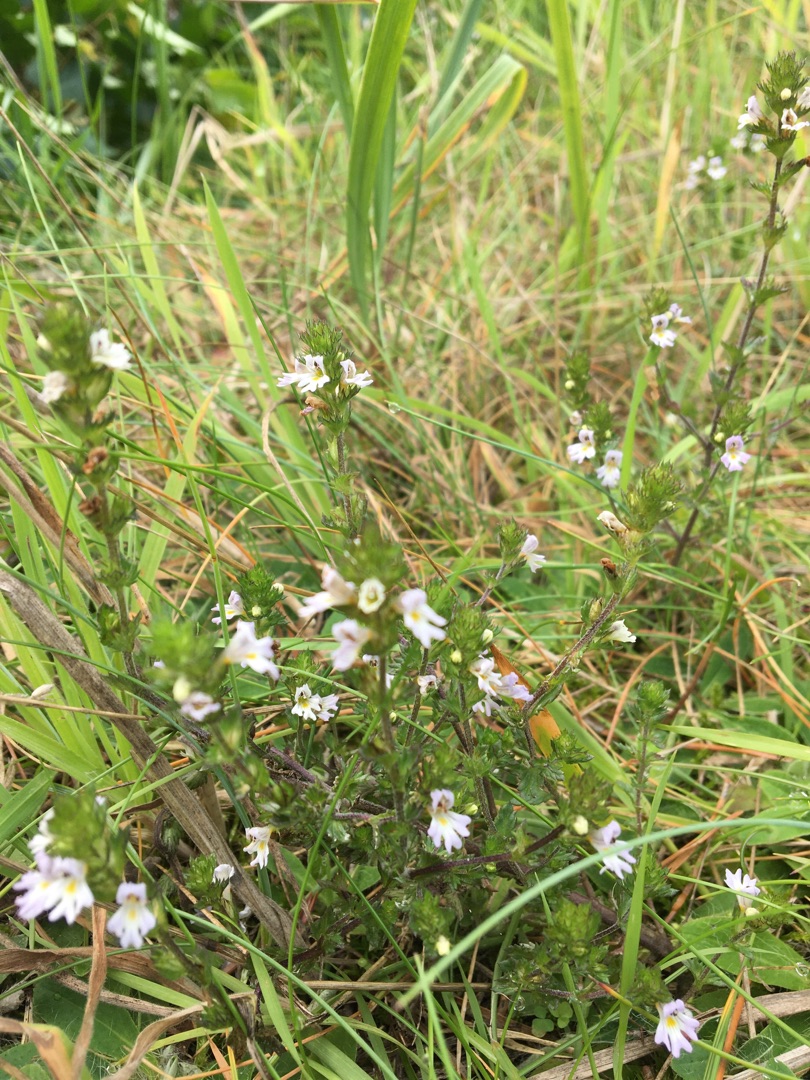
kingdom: Plantae
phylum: Tracheophyta
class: Magnoliopsida
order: Lamiales
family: Orobanchaceae
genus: Euphrasia
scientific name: Euphrasia stricta
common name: Spids øjentrøst
